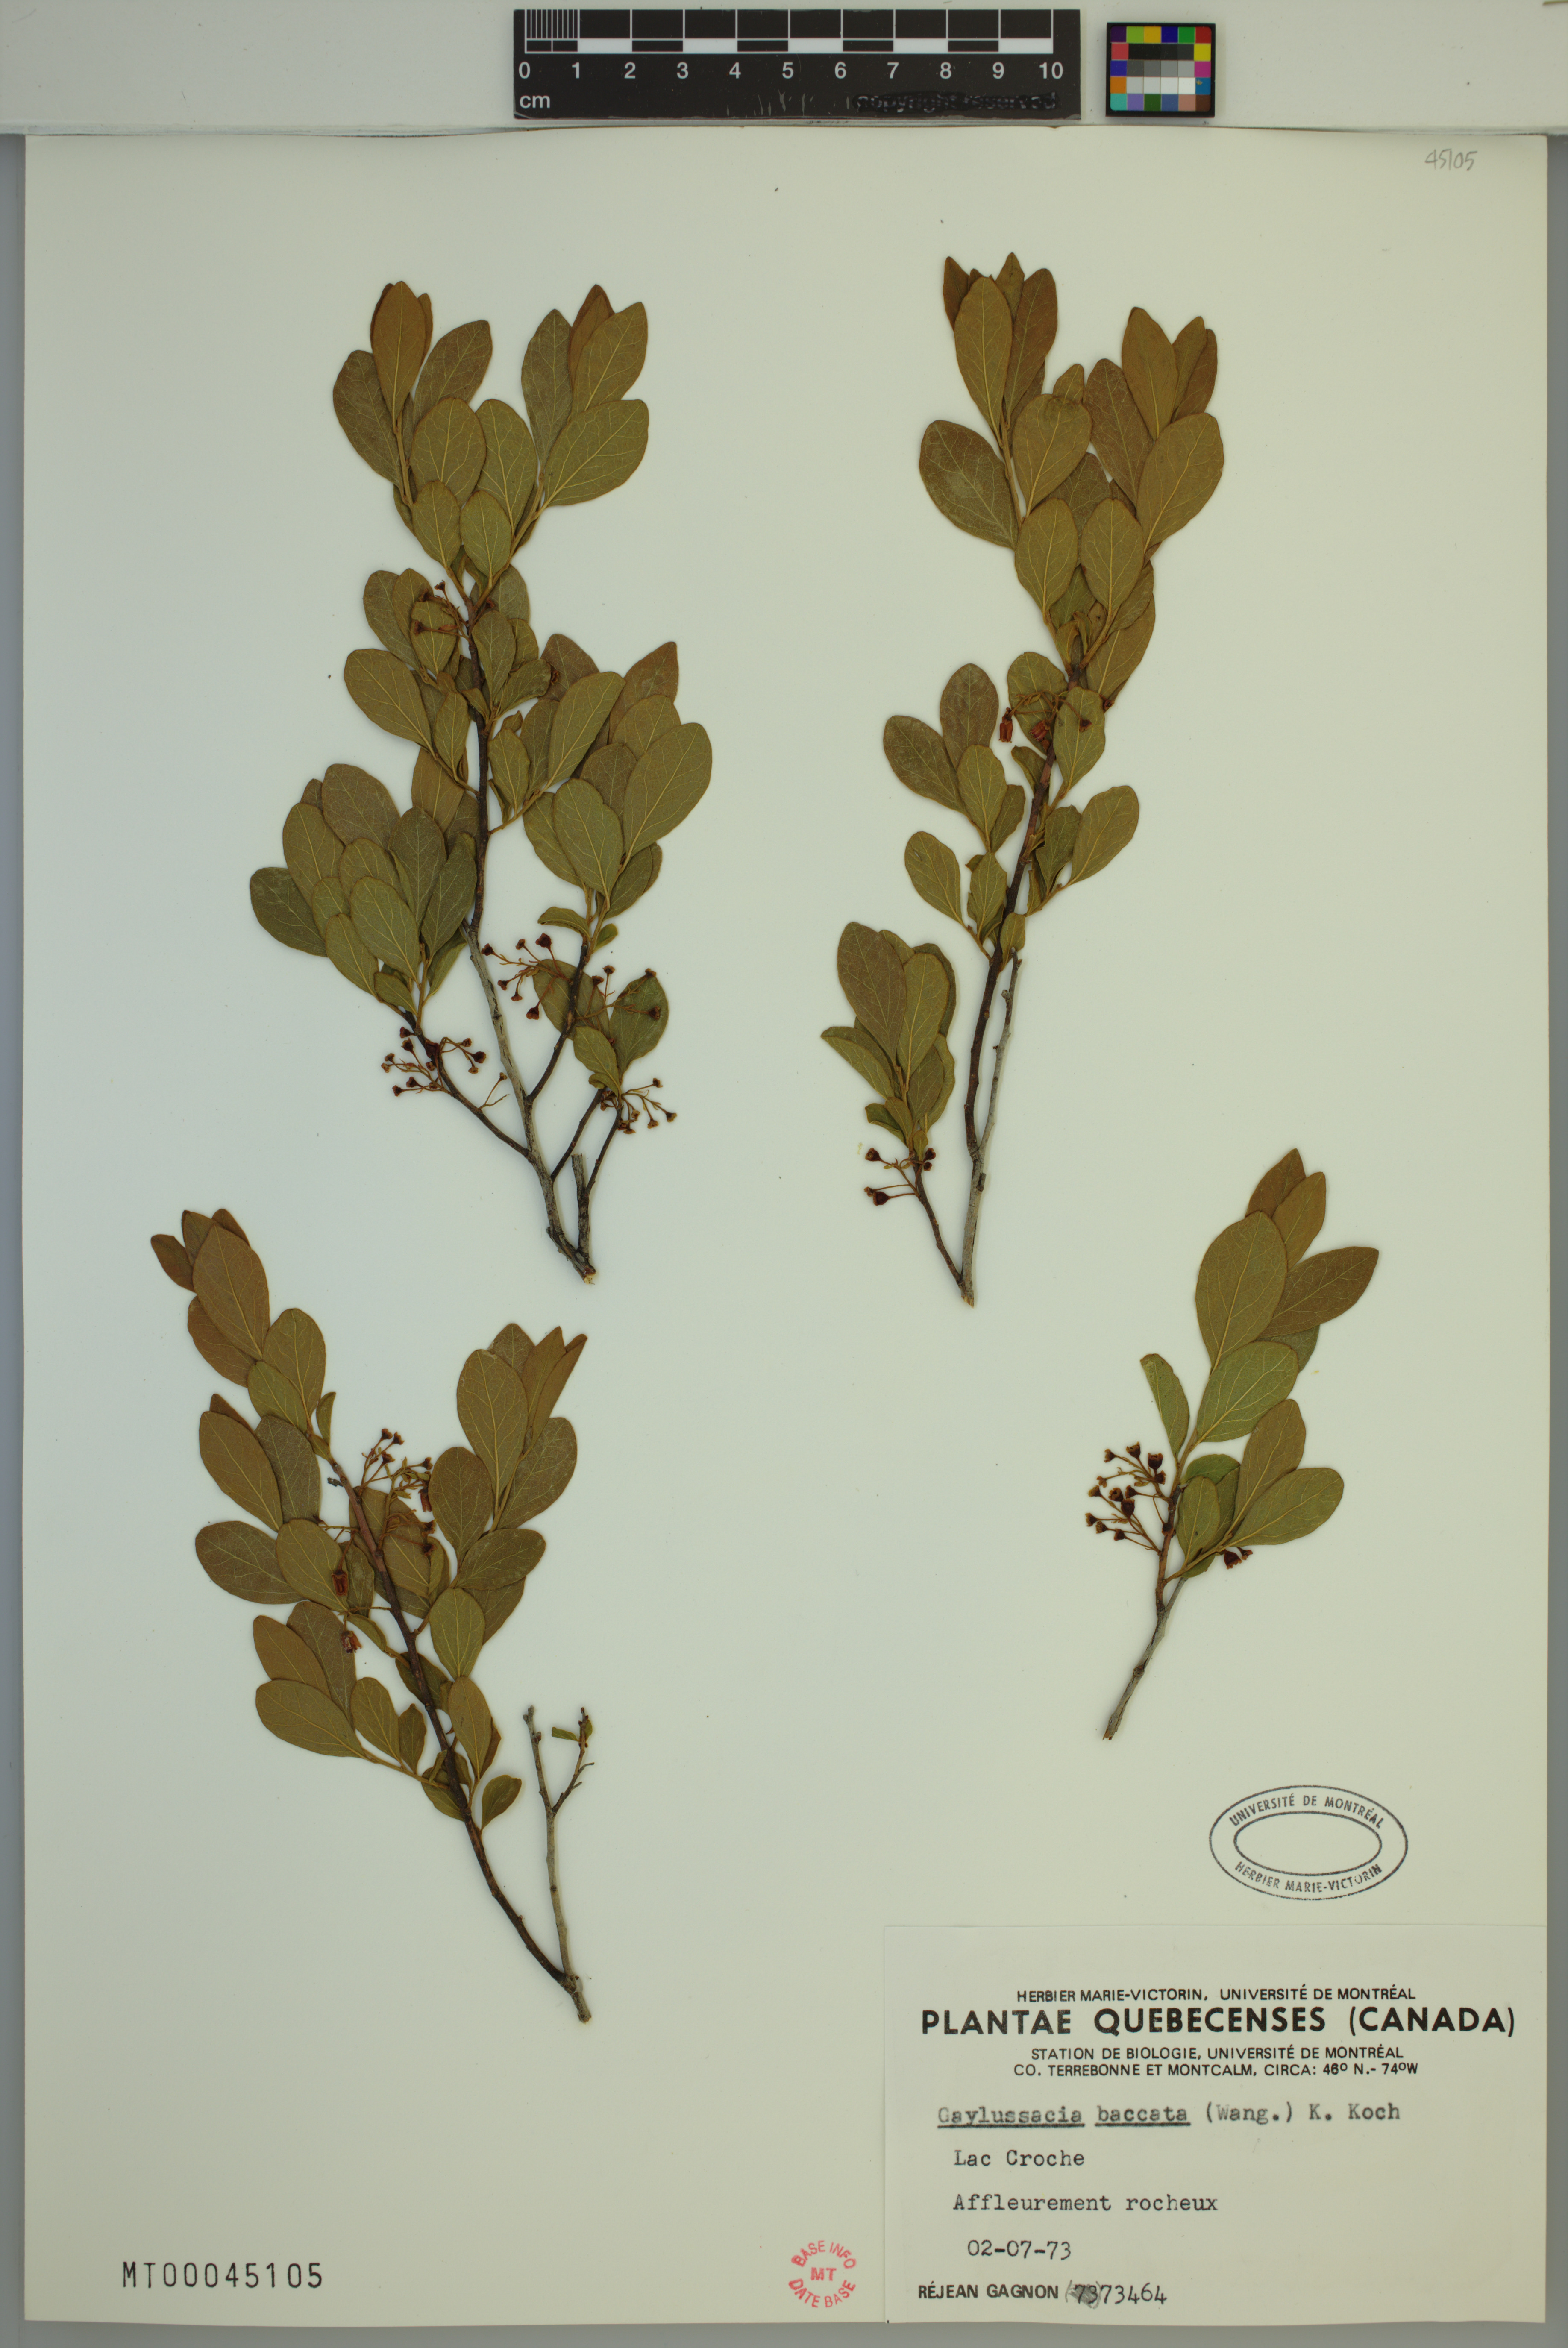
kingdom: Plantae
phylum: Tracheophyta
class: Magnoliopsida
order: Ericales
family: Ericaceae
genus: Gaylussacia
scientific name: Gaylussacia baccata
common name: Black huckleberry
